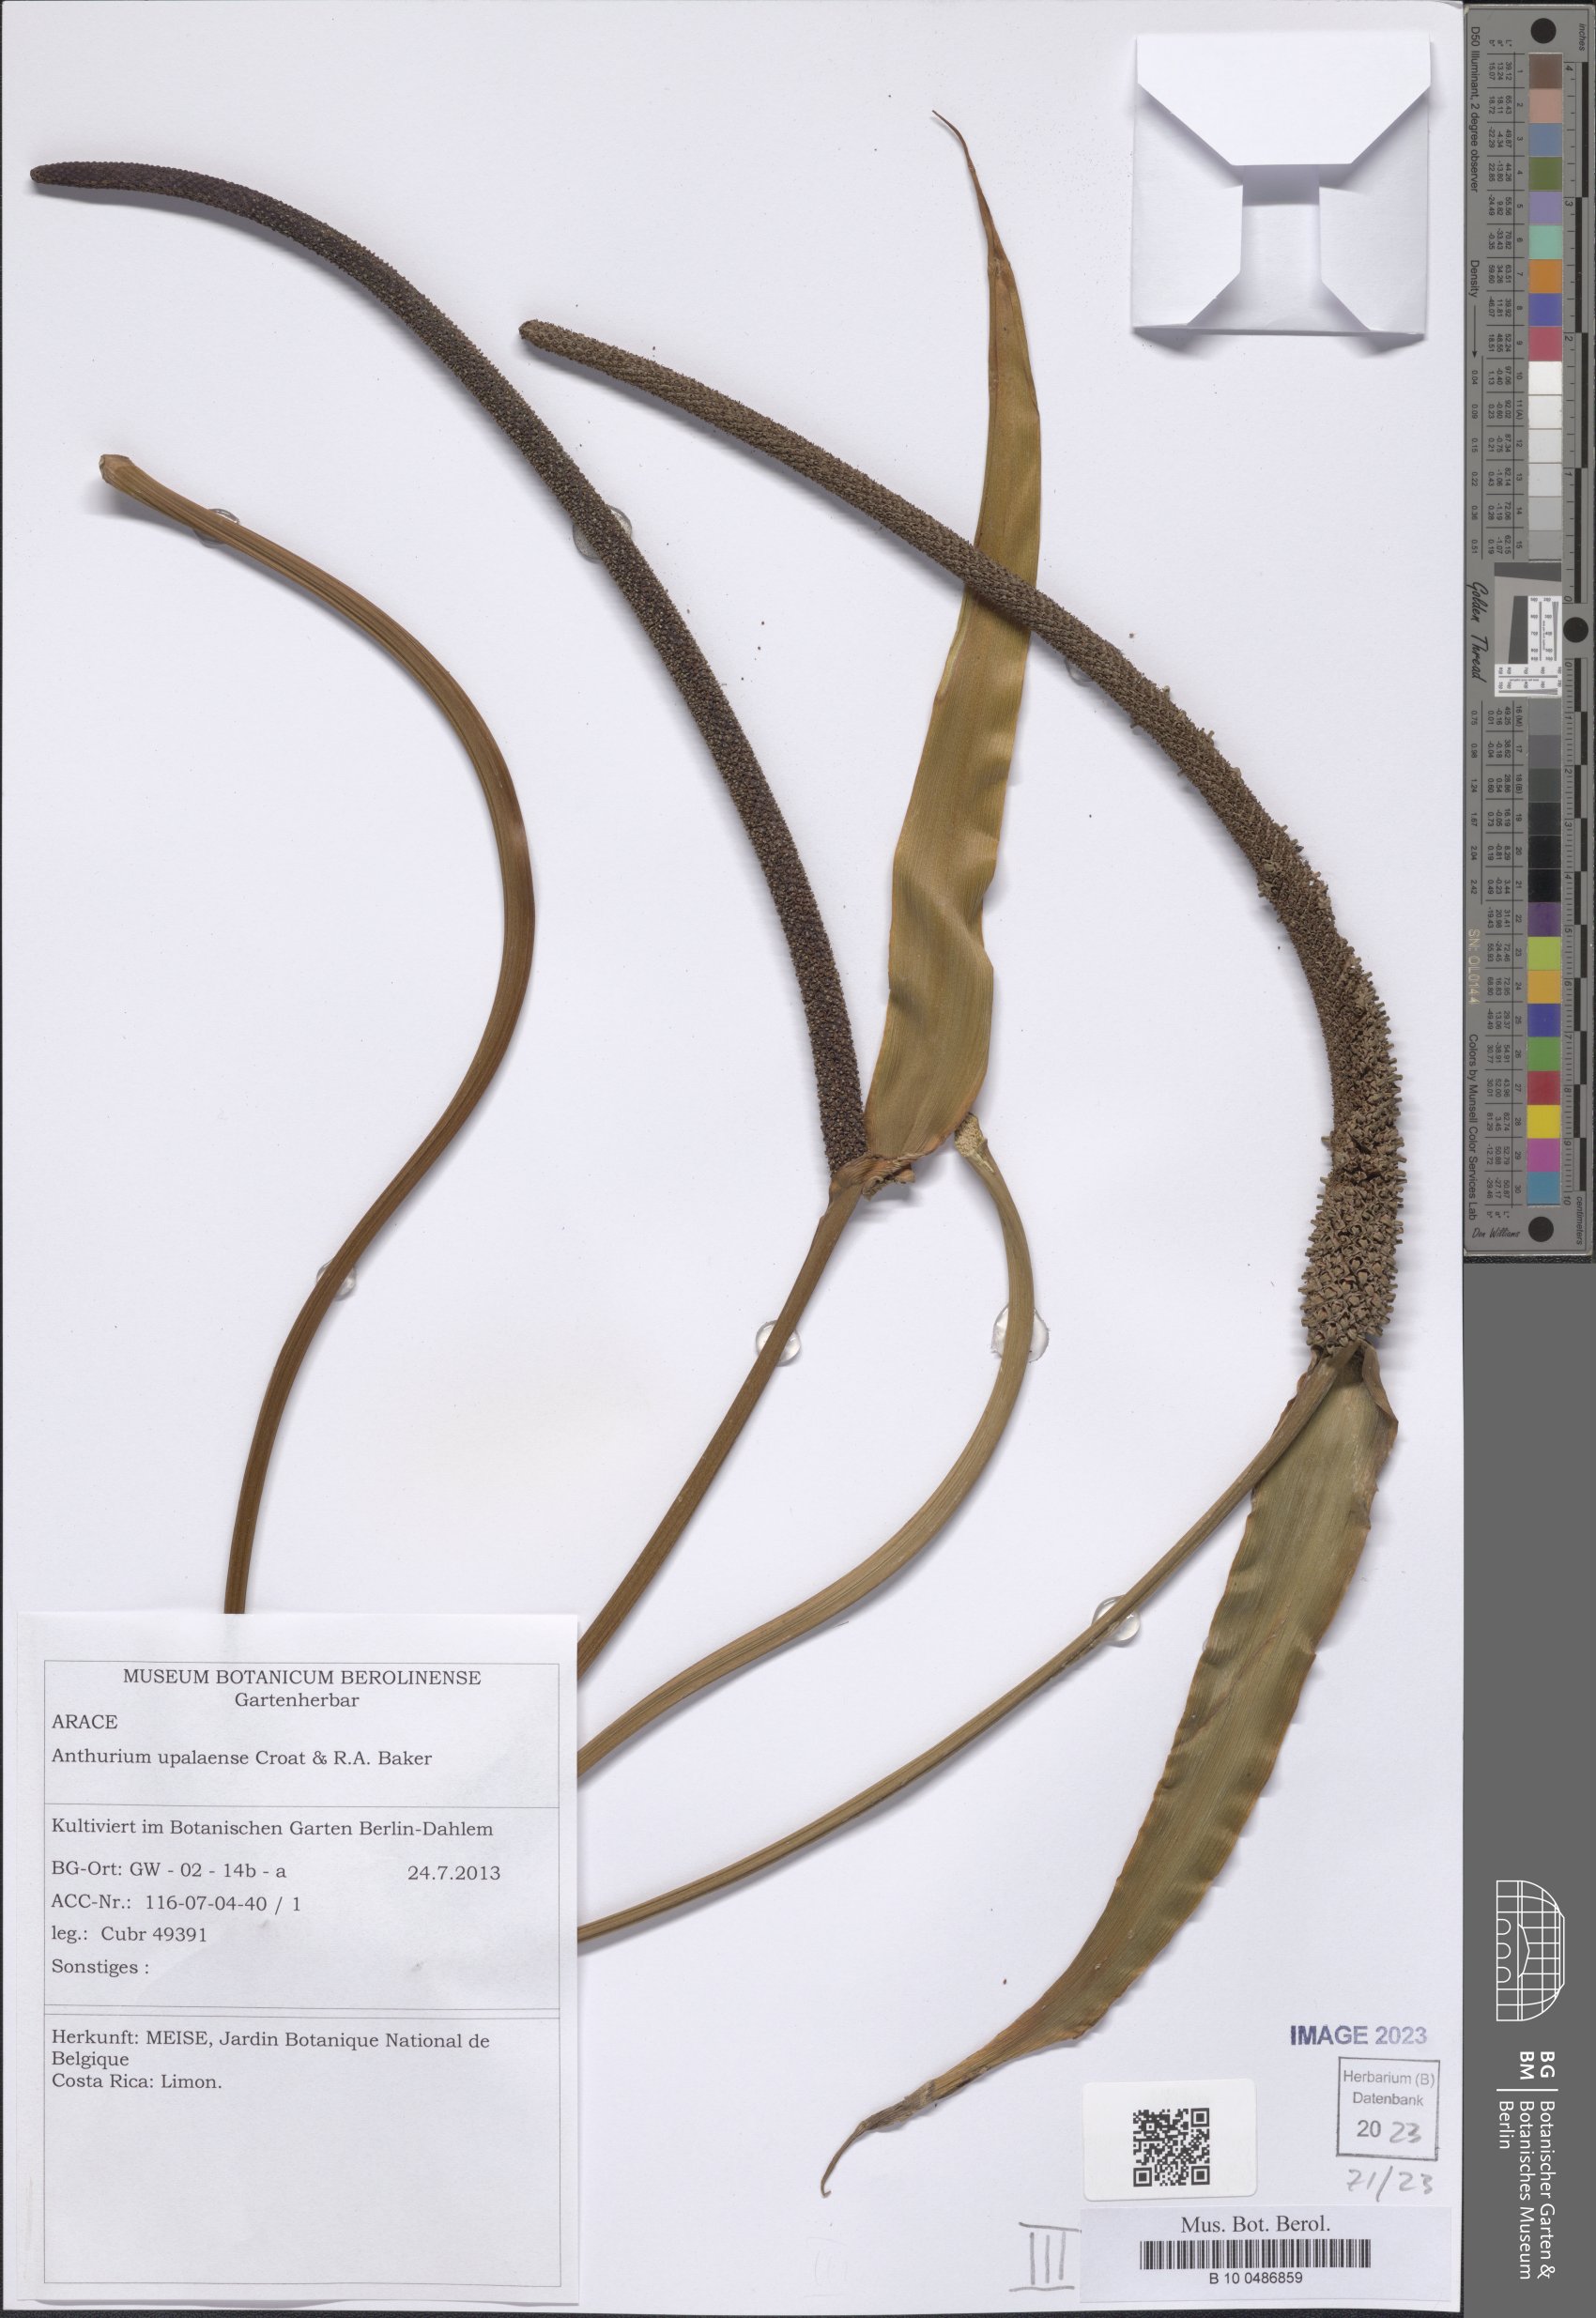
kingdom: Plantae
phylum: Tracheophyta
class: Liliopsida
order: Alismatales
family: Araceae
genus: Anthurium
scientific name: Anthurium upalaense
